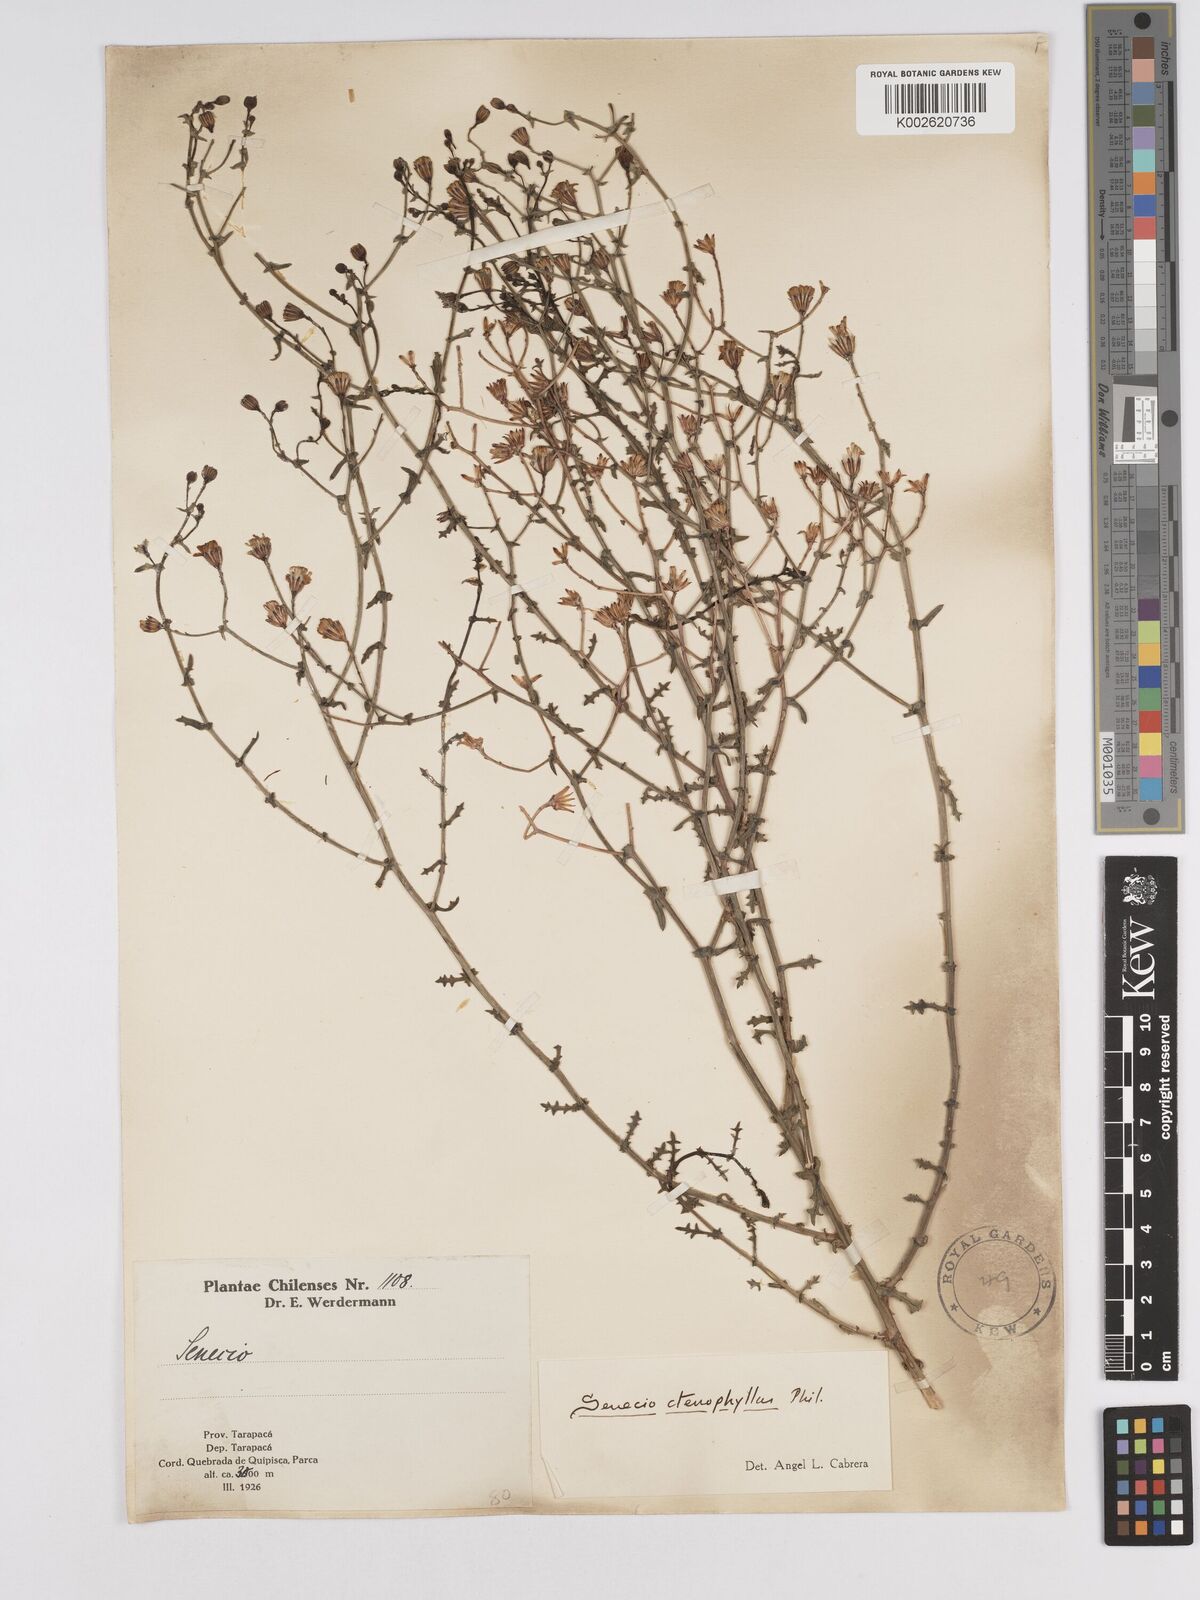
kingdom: Plantae
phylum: Tracheophyta
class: Magnoliopsida
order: Asterales
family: Asteraceae
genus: Senecio
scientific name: Senecio ctenophyllus
